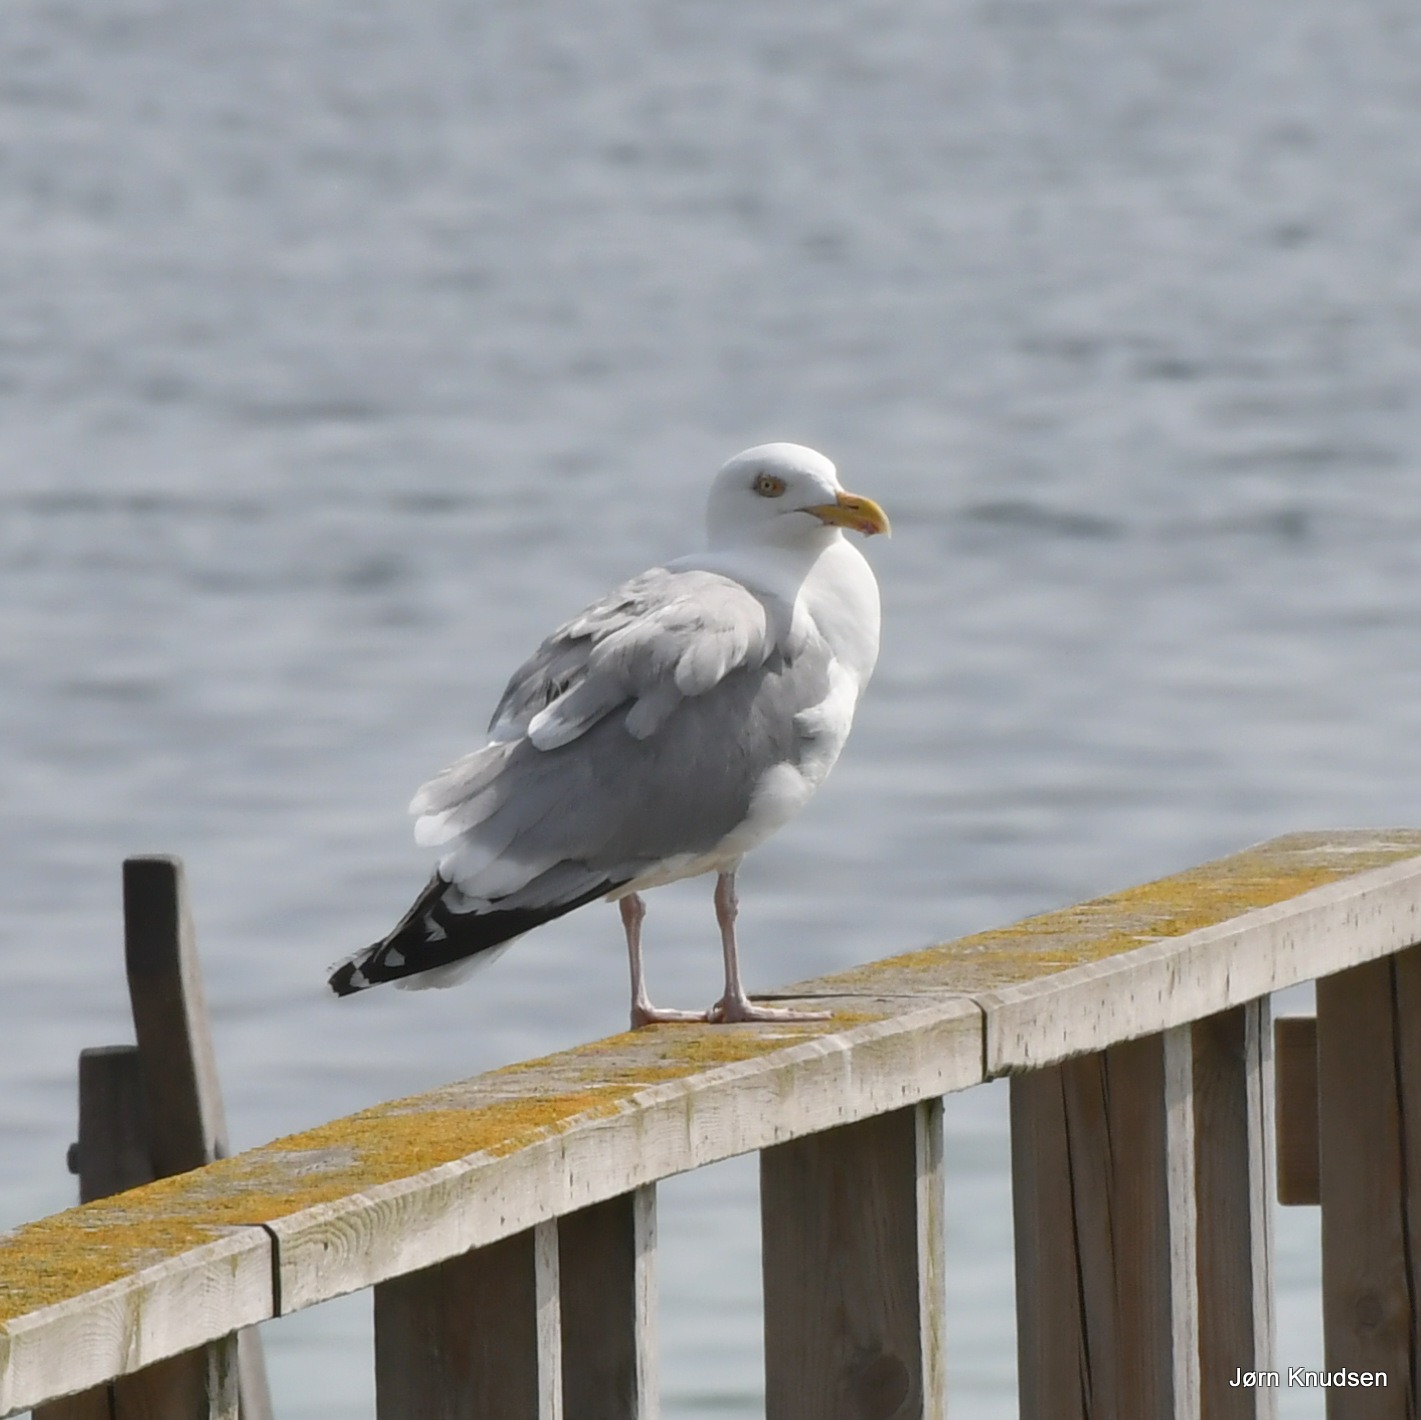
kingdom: Animalia
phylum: Chordata
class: Aves
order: Charadriiformes
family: Laridae
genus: Larus
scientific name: Larus argentatus
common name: Sølvmåge
